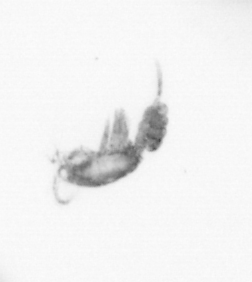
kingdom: Animalia
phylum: Arthropoda
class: Copepoda
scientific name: Copepoda
